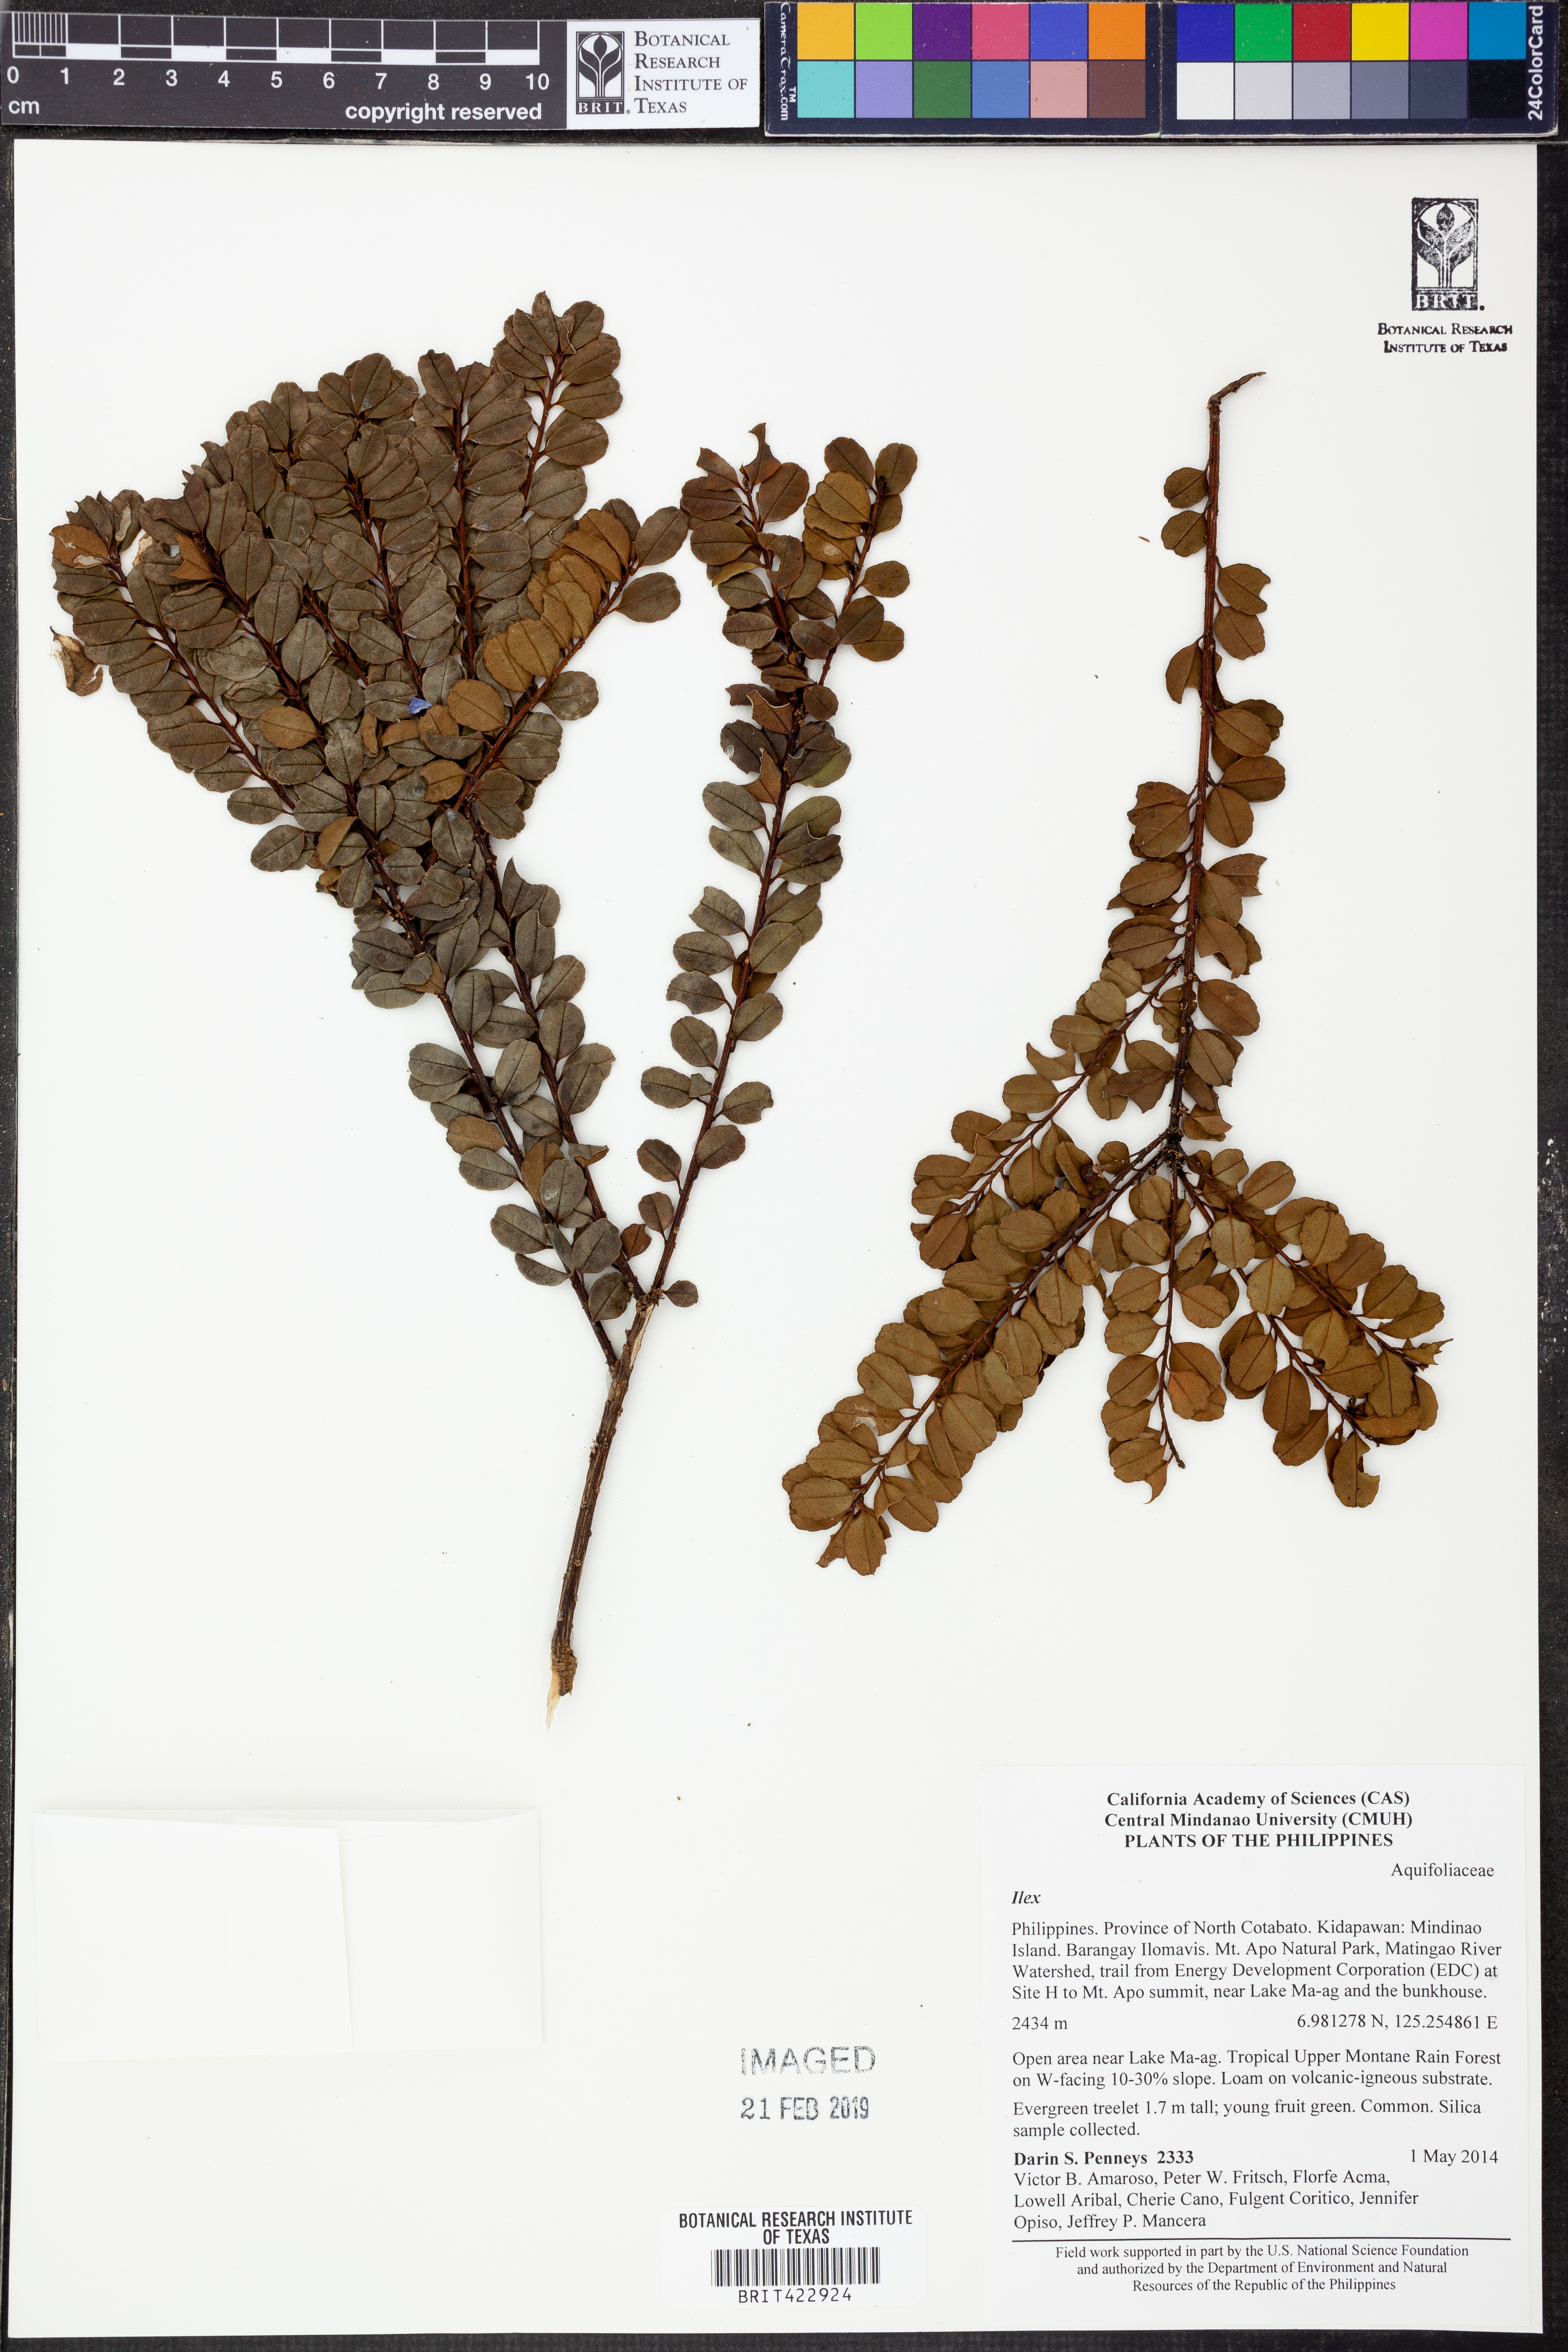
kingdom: Plantae
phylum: Tracheophyta
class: Magnoliopsida
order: Aquifoliales
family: Aquifoliaceae
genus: Ilex
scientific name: Ilex
